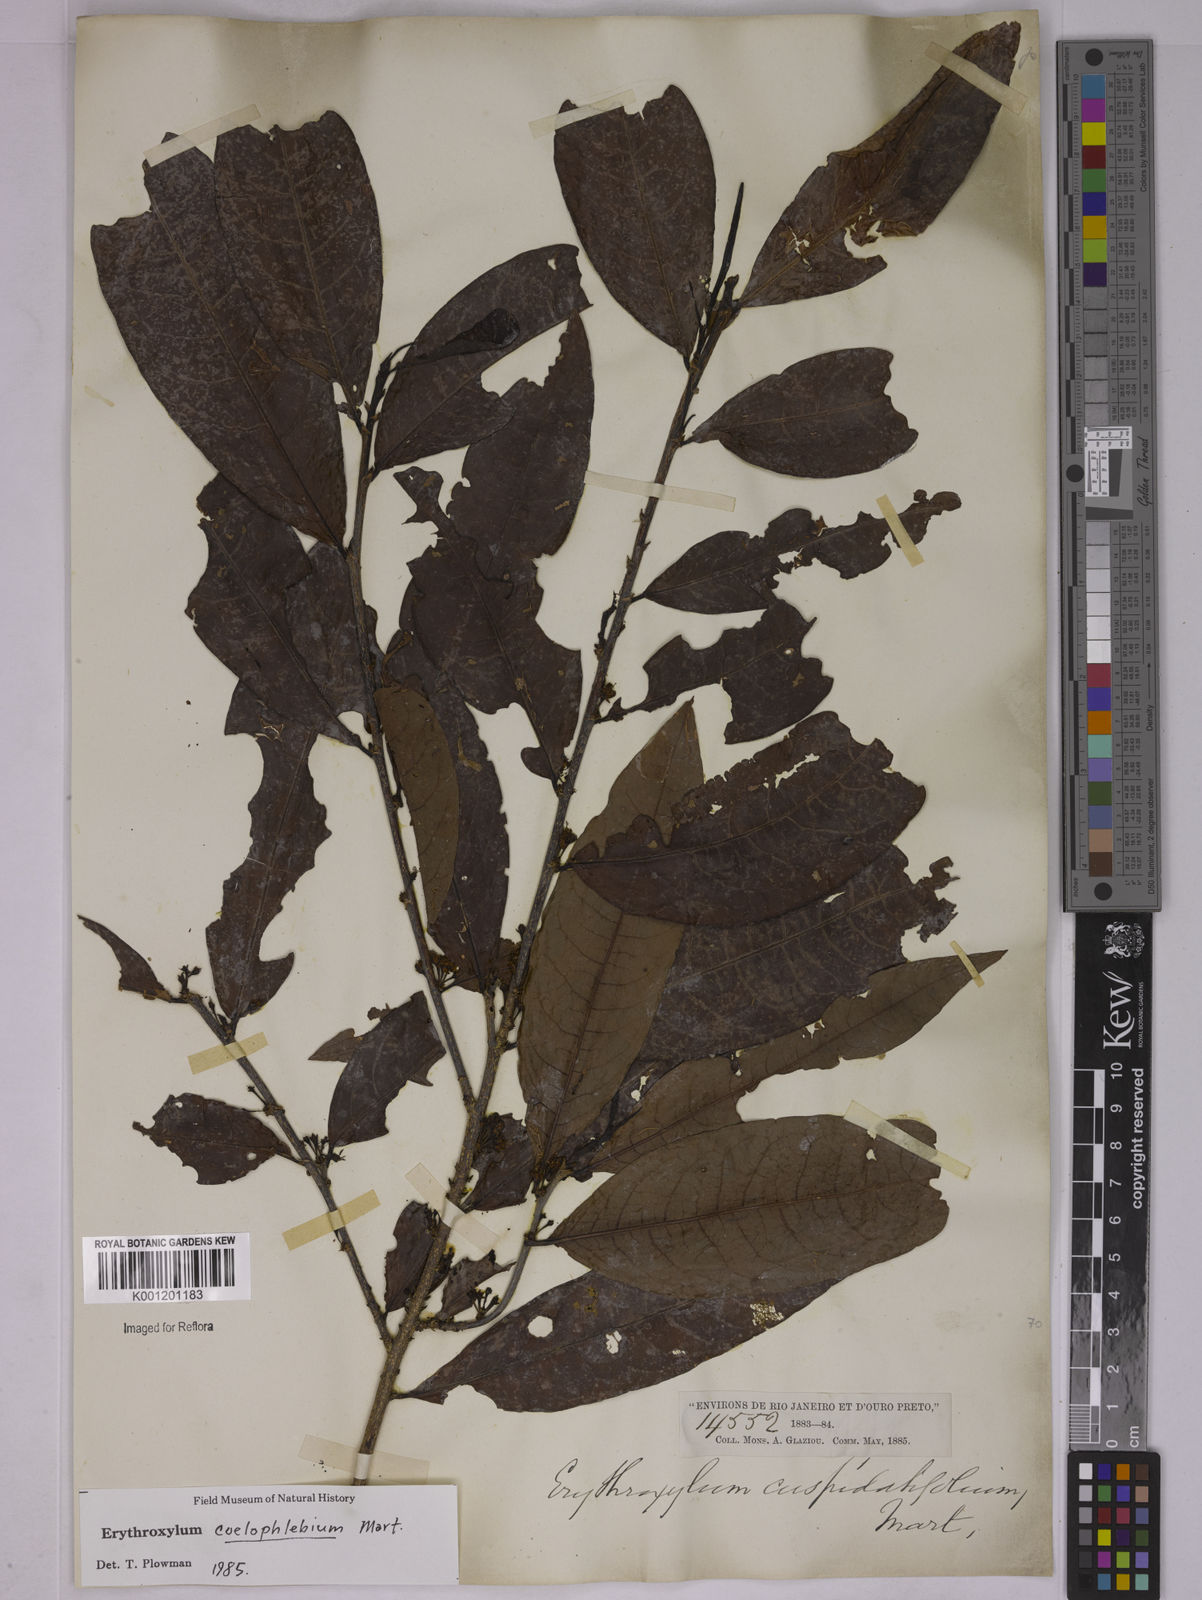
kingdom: Plantae
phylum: Tracheophyta
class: Magnoliopsida
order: Malpighiales
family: Erythroxylaceae
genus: Erythroxylum
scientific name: Erythroxylum coelophlebium
